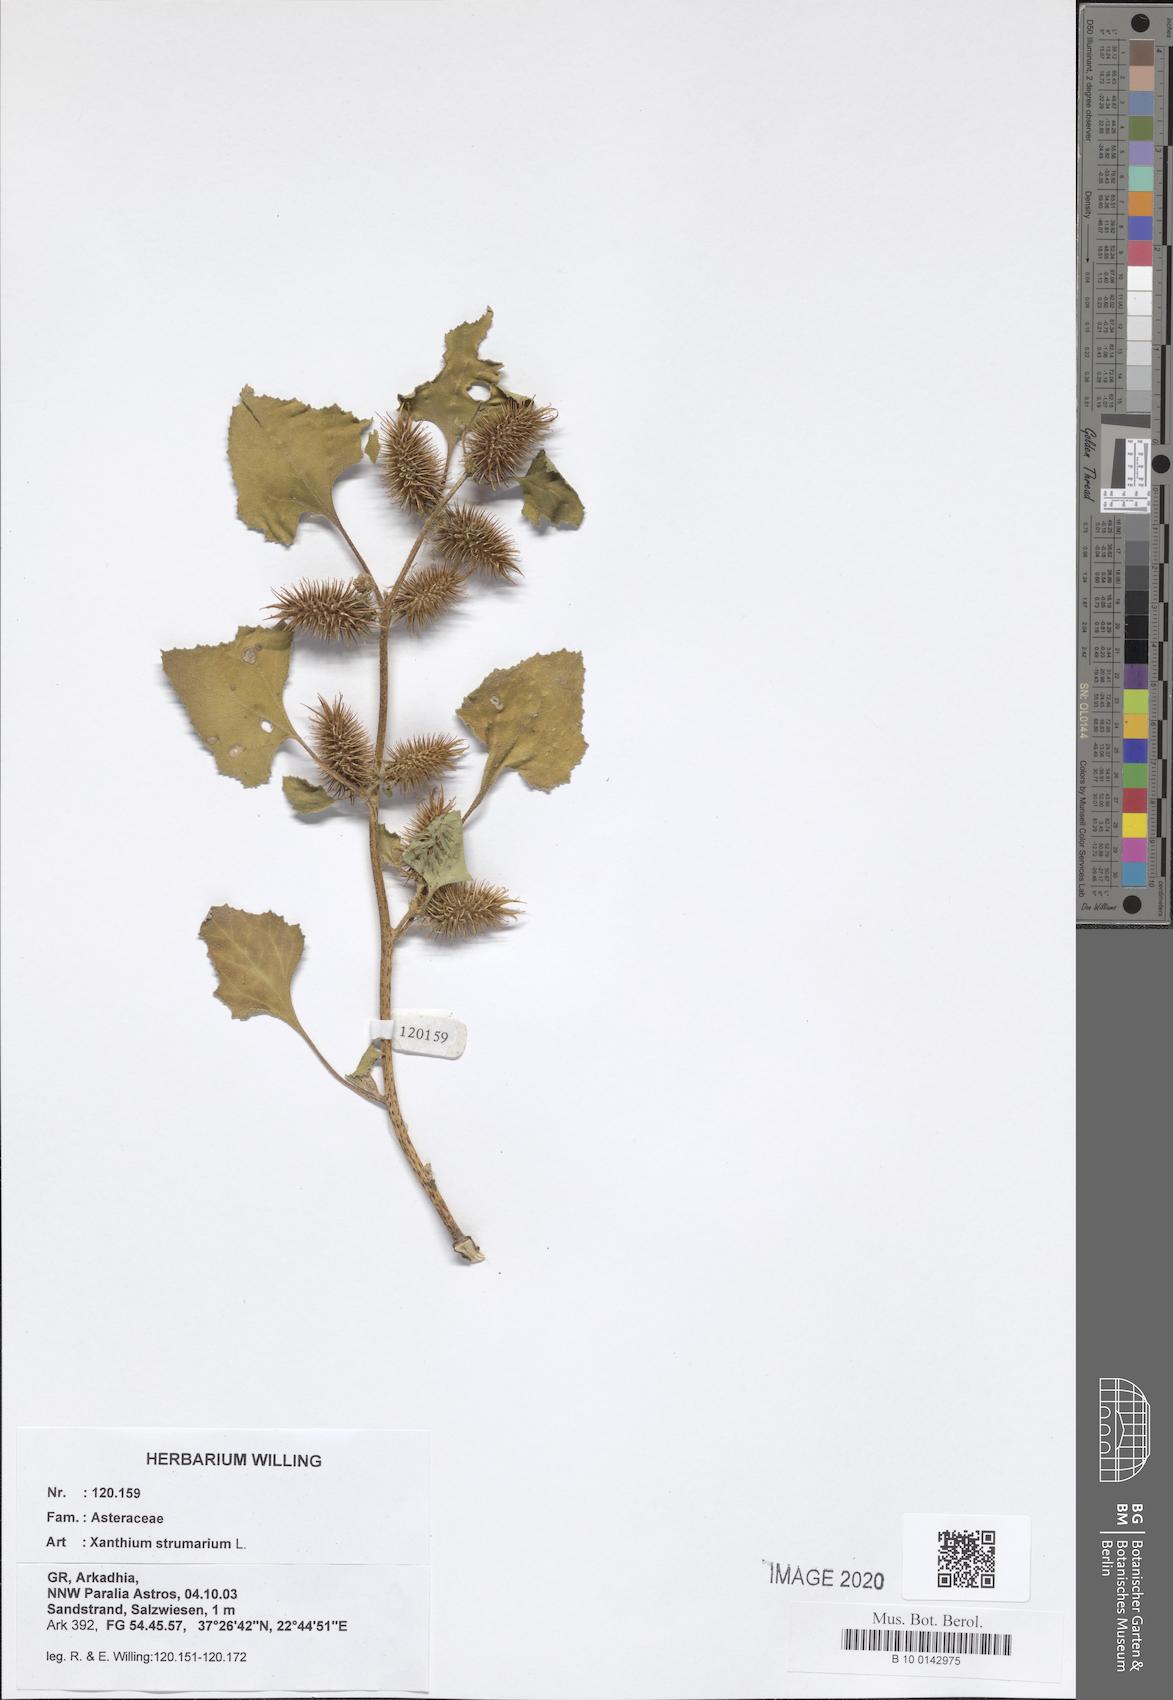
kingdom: Plantae
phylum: Tracheophyta
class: Magnoliopsida
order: Asterales
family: Asteraceae
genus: Xanthium
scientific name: Xanthium strumarium
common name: Rough cocklebur
